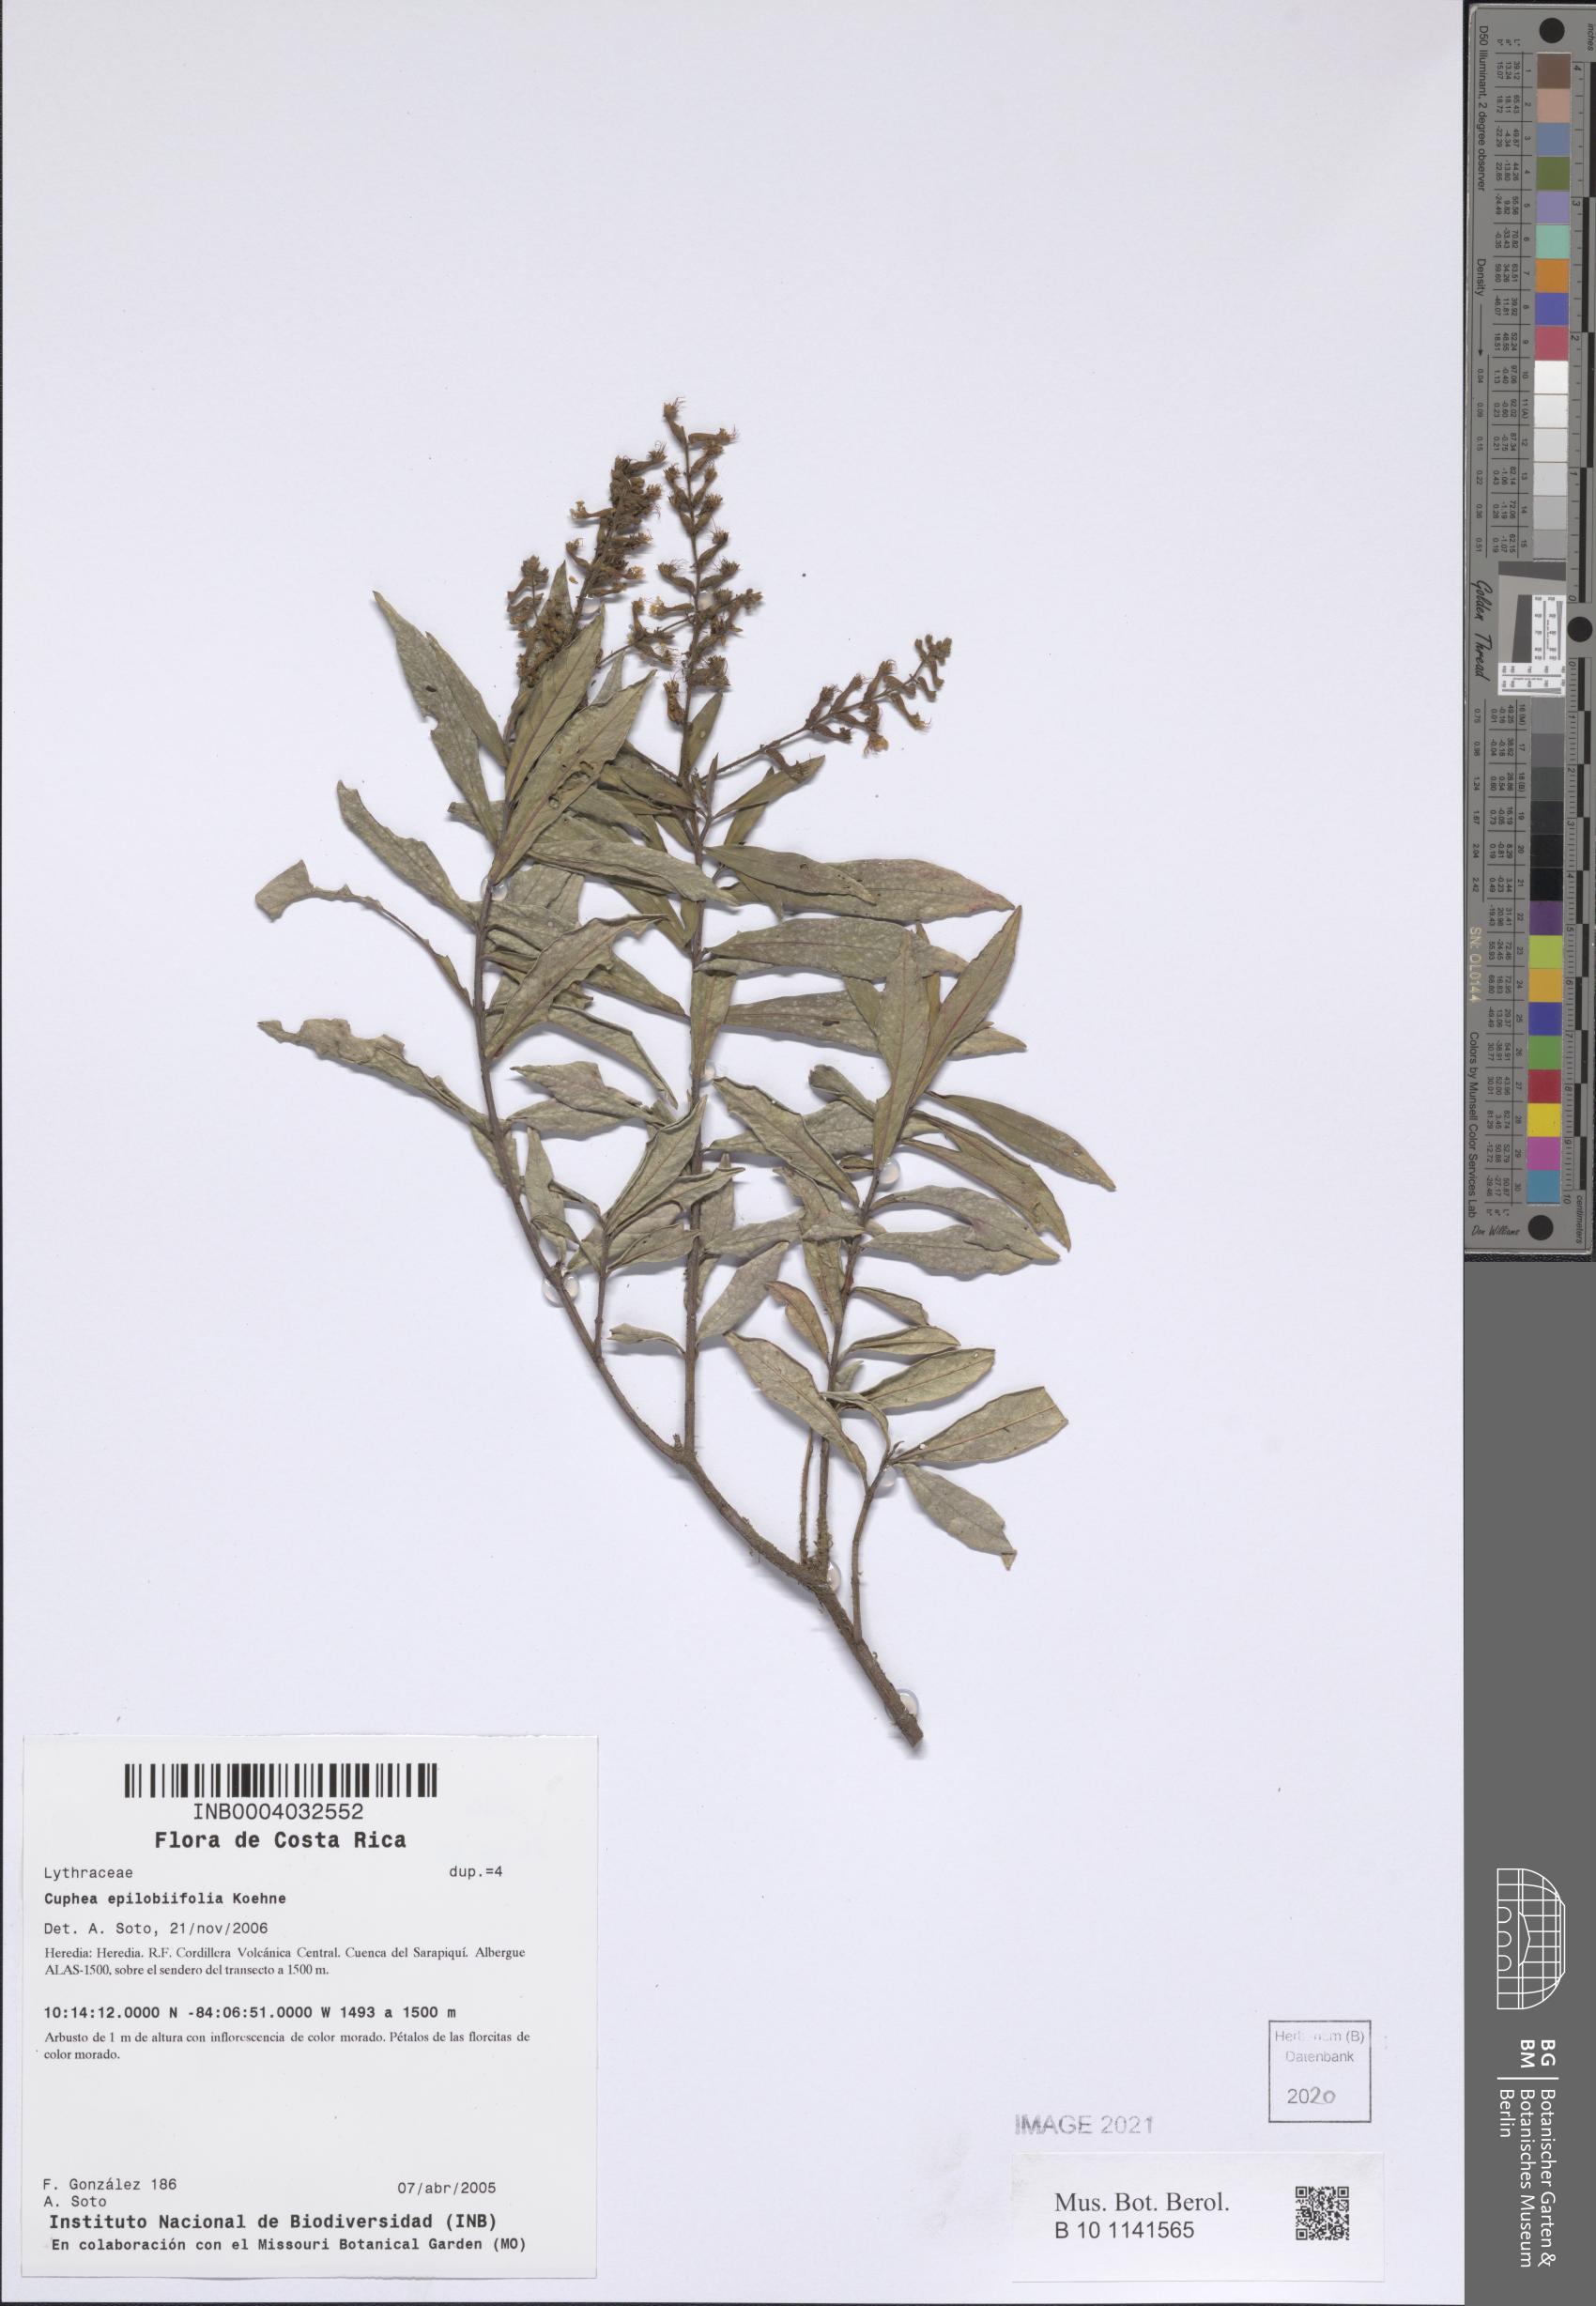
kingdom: Plantae
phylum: Tracheophyta
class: Magnoliopsida
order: Myrtales
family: Lythraceae
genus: Cuphea
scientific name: Cuphea epilobiifolia
